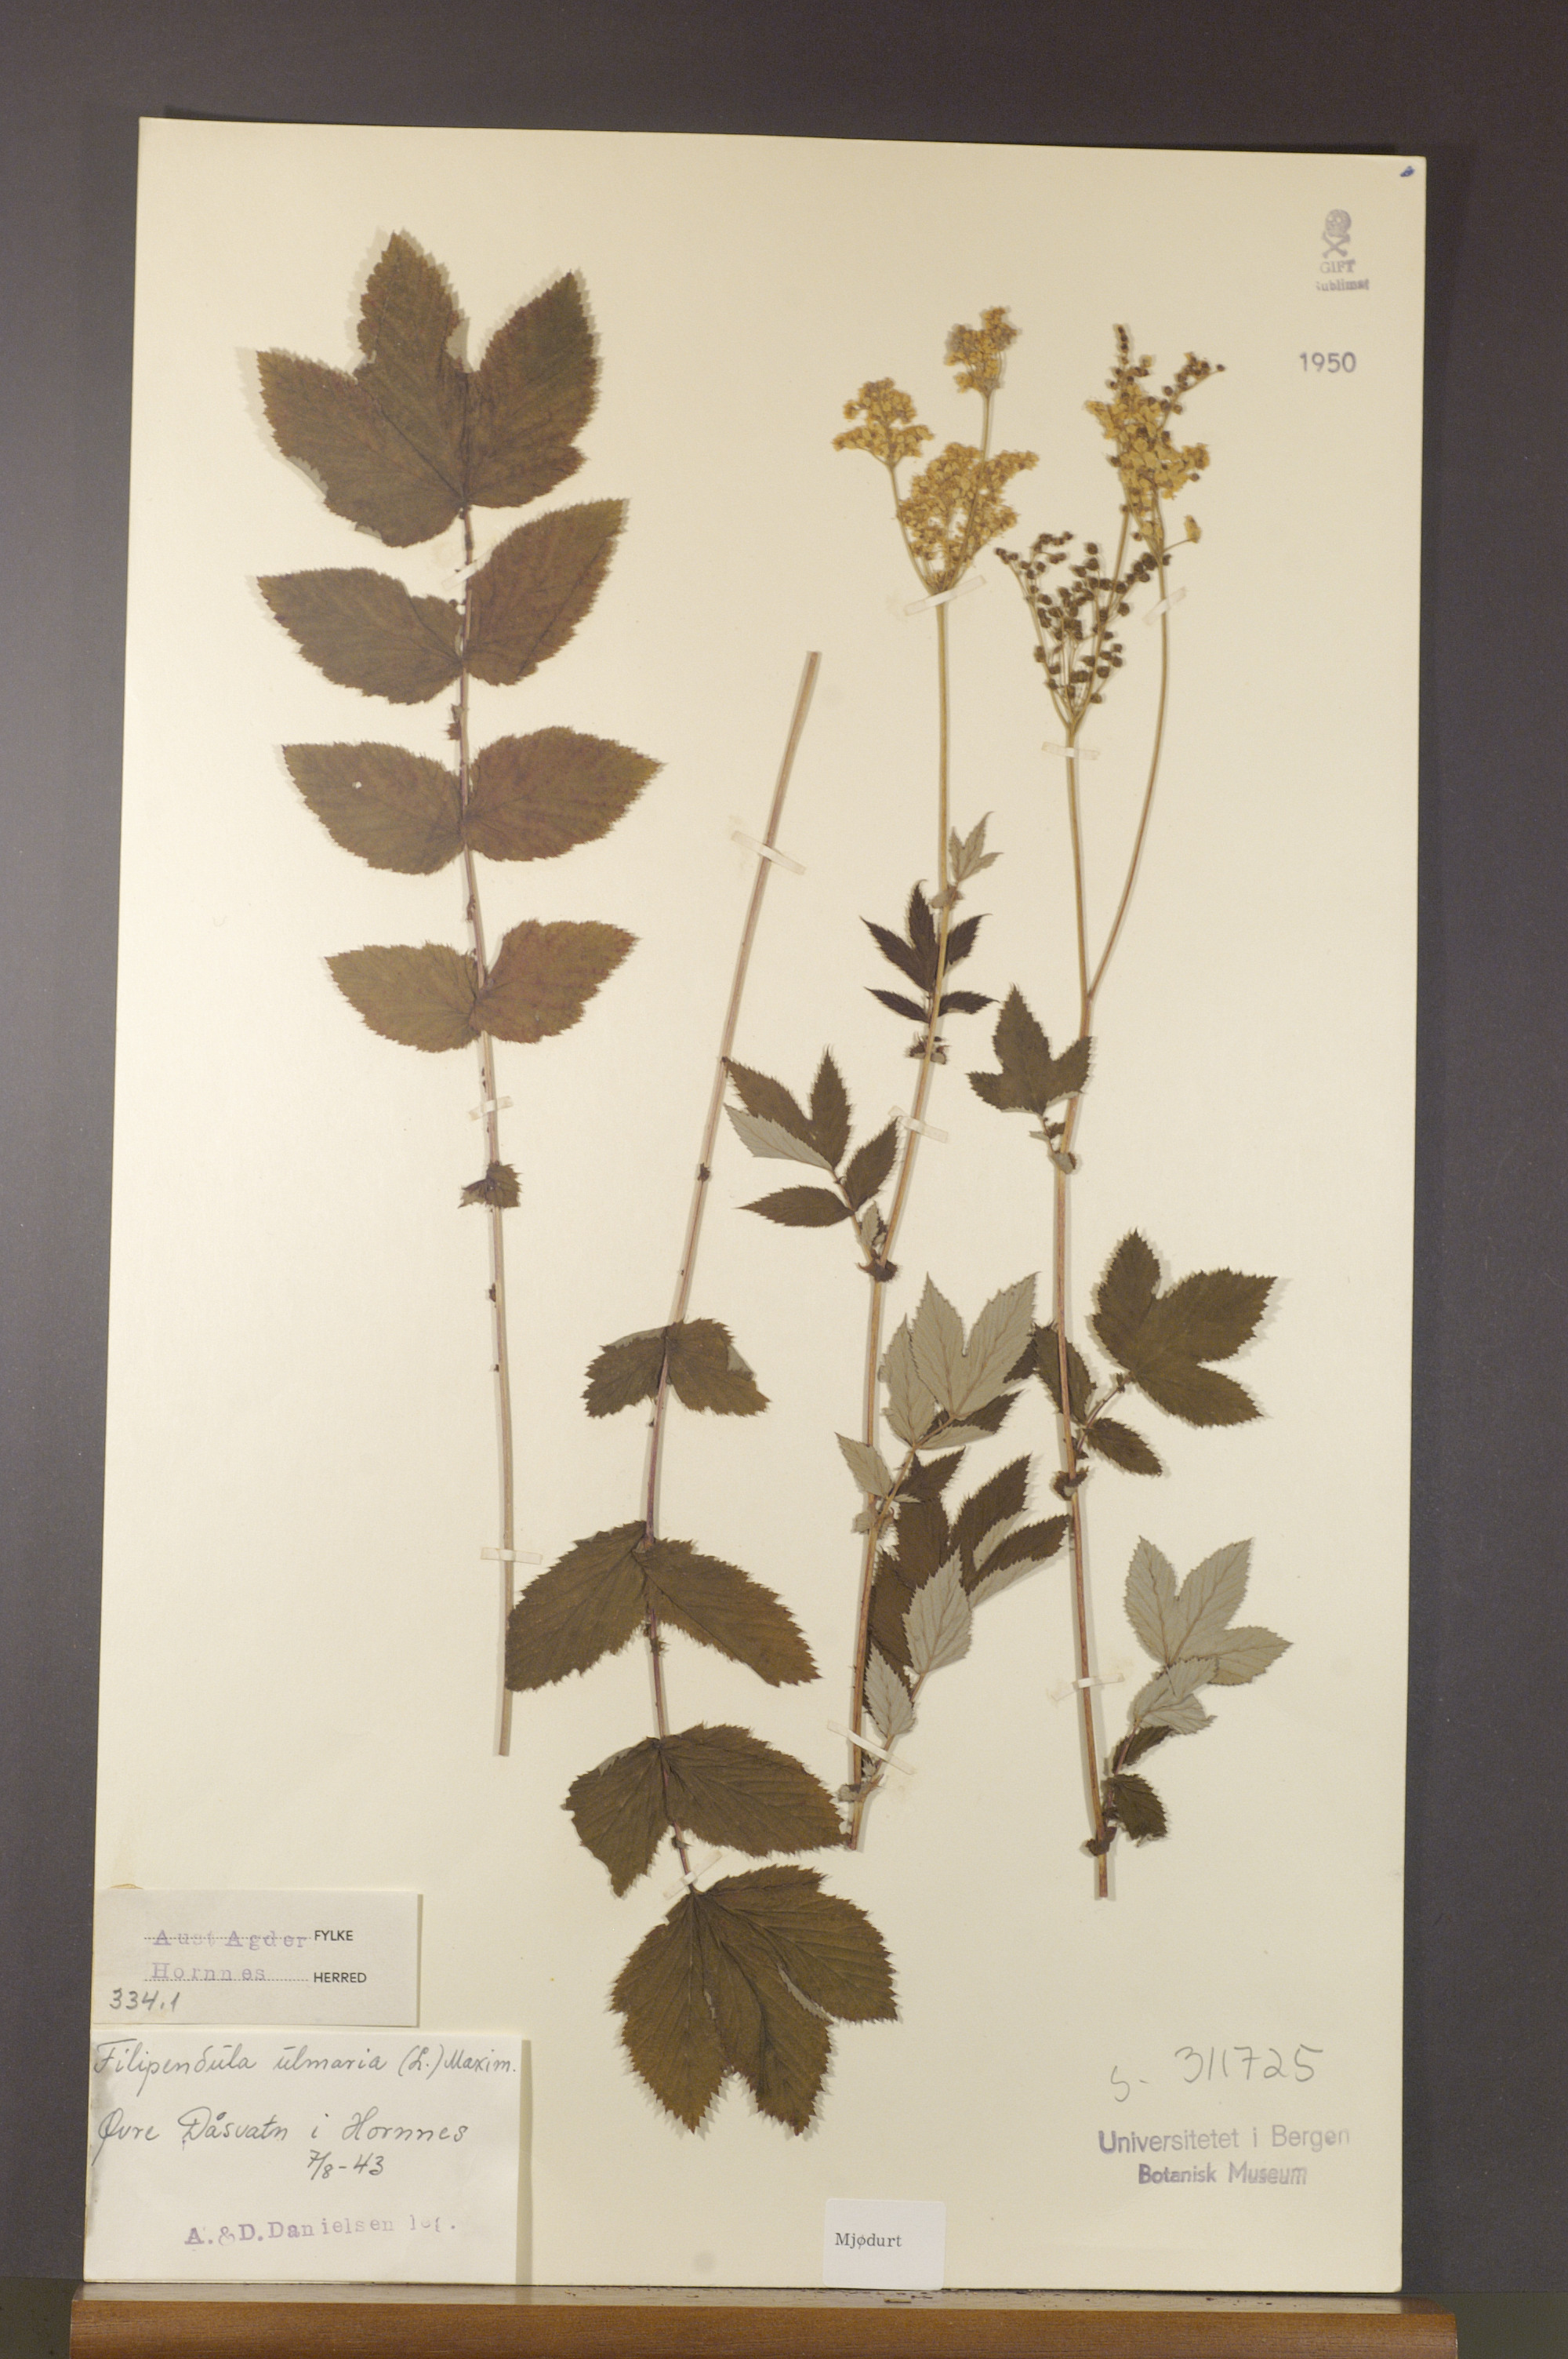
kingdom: Plantae
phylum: Tracheophyta
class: Magnoliopsida
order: Rosales
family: Rosaceae
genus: Filipendula
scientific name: Filipendula ulmaria
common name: Meadowsweet
